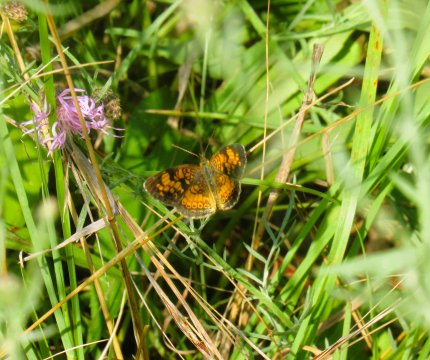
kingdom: Animalia
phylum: Arthropoda
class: Insecta
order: Lepidoptera
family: Nymphalidae
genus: Phyciodes
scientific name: Phyciodes tharos
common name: Pearl Crescent
